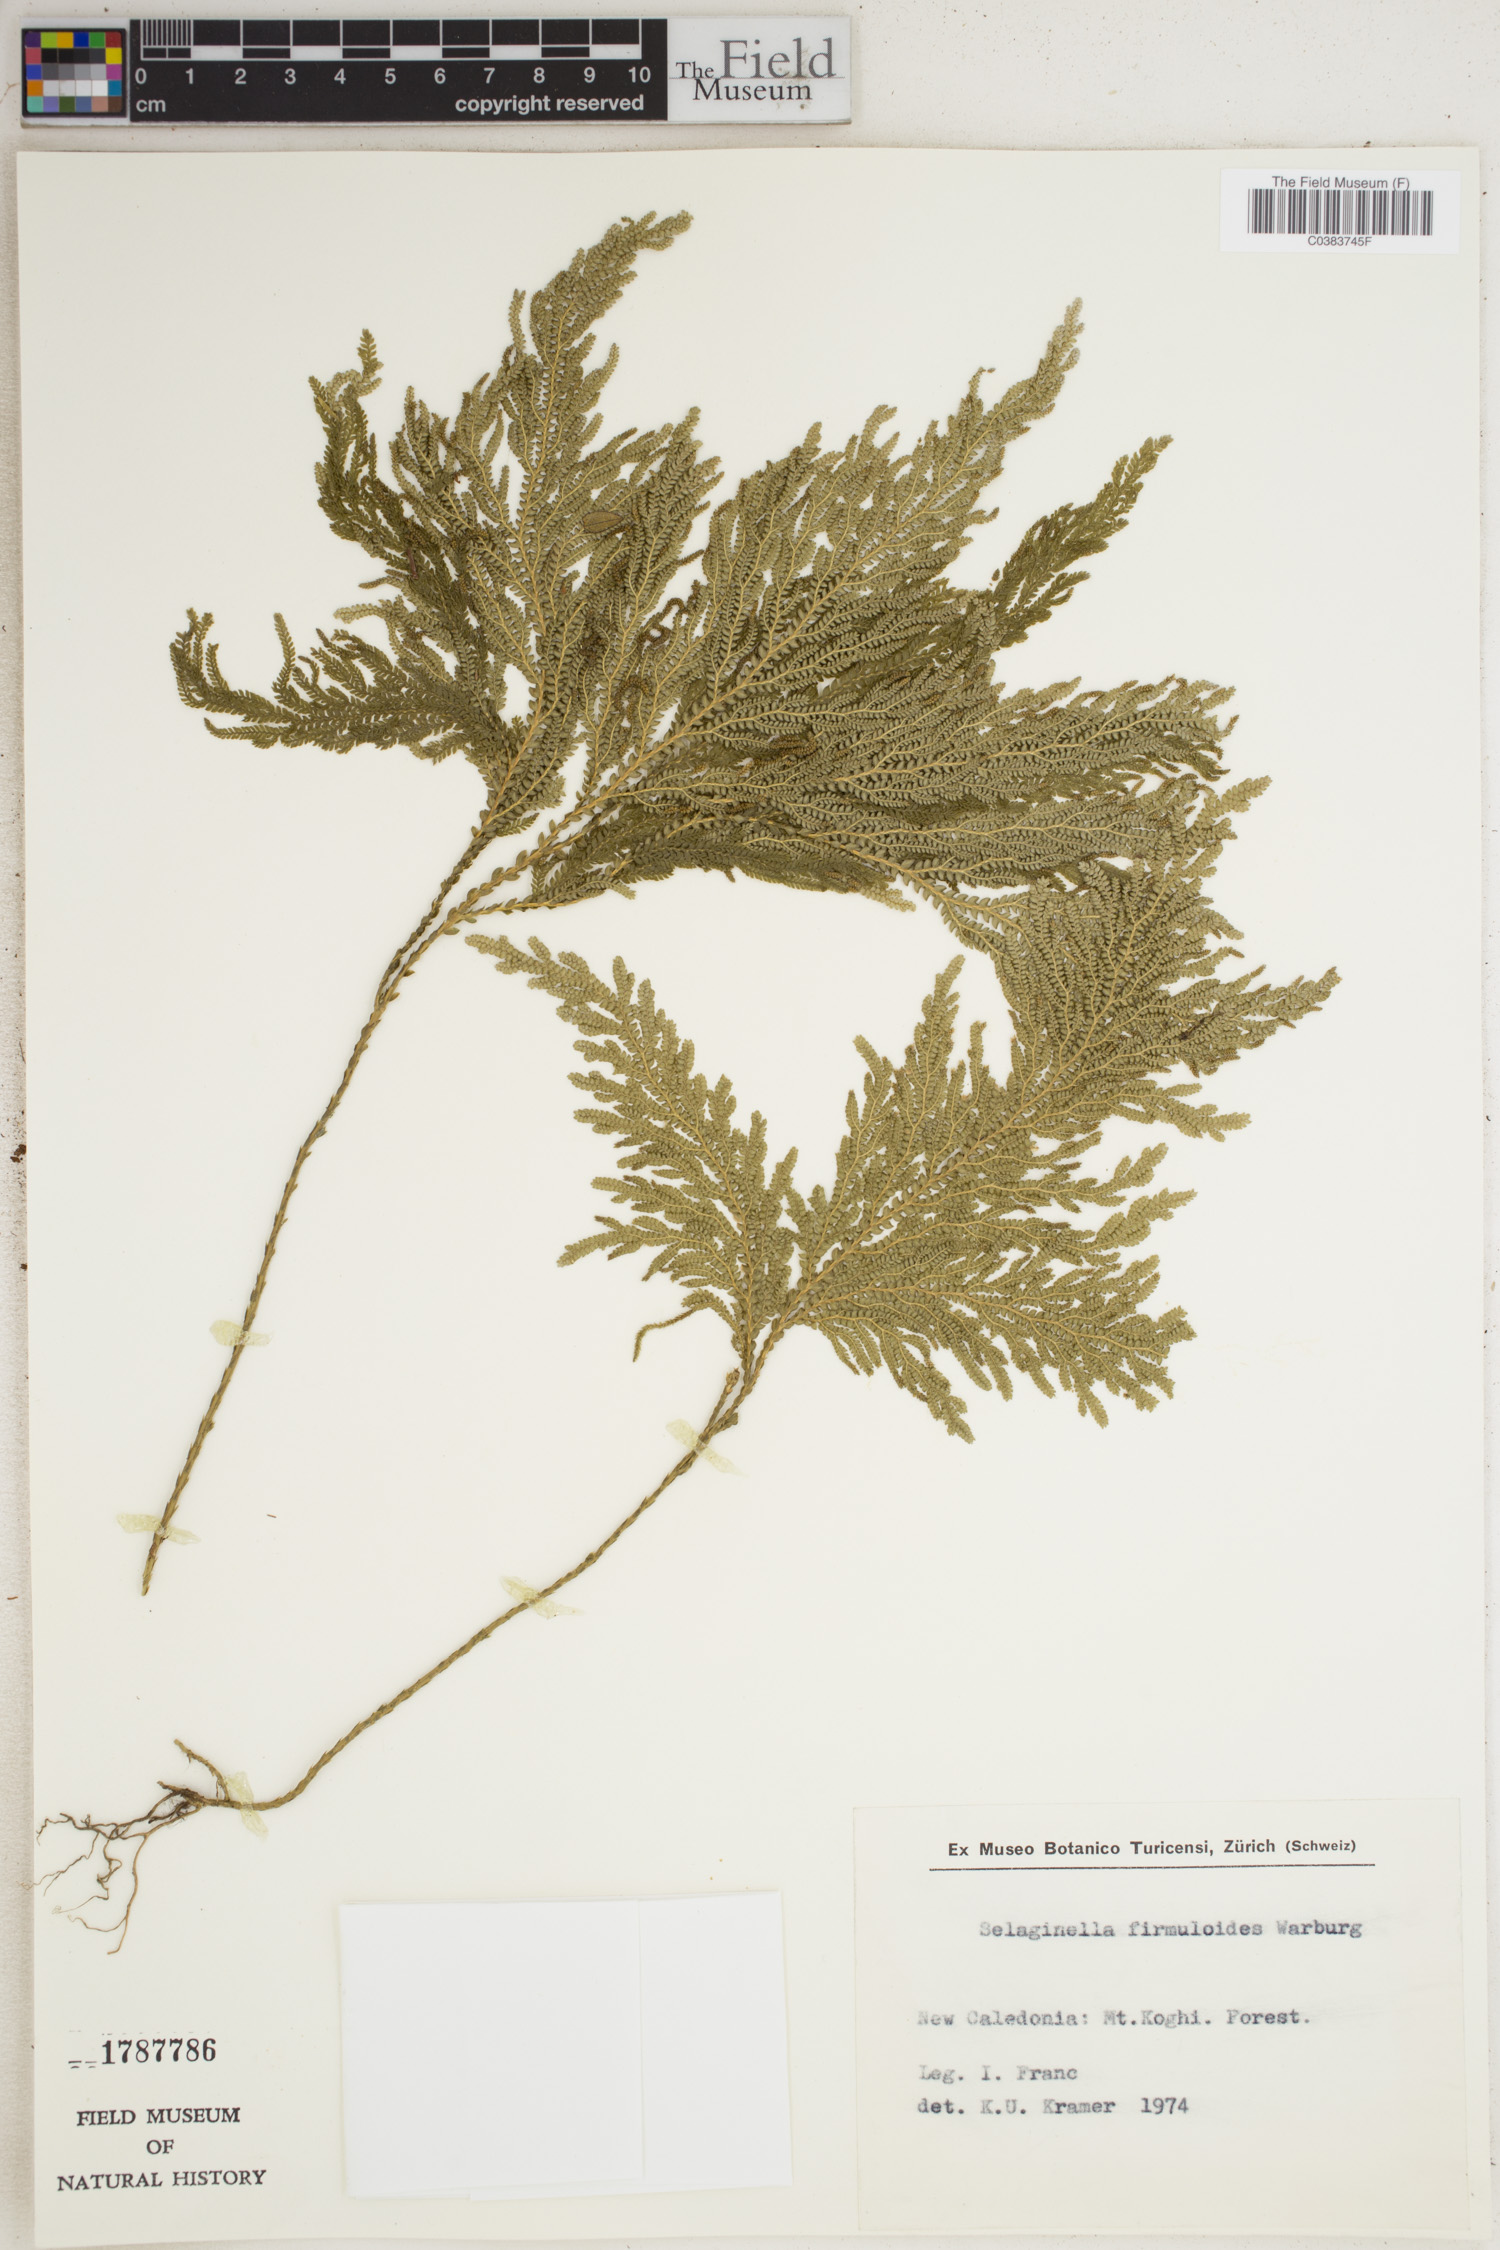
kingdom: Plantae
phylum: Tracheophyta
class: Lycopodiopsida
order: Selaginellales
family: Selaginellaceae
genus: Selaginella
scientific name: Selaginella firmuloides
